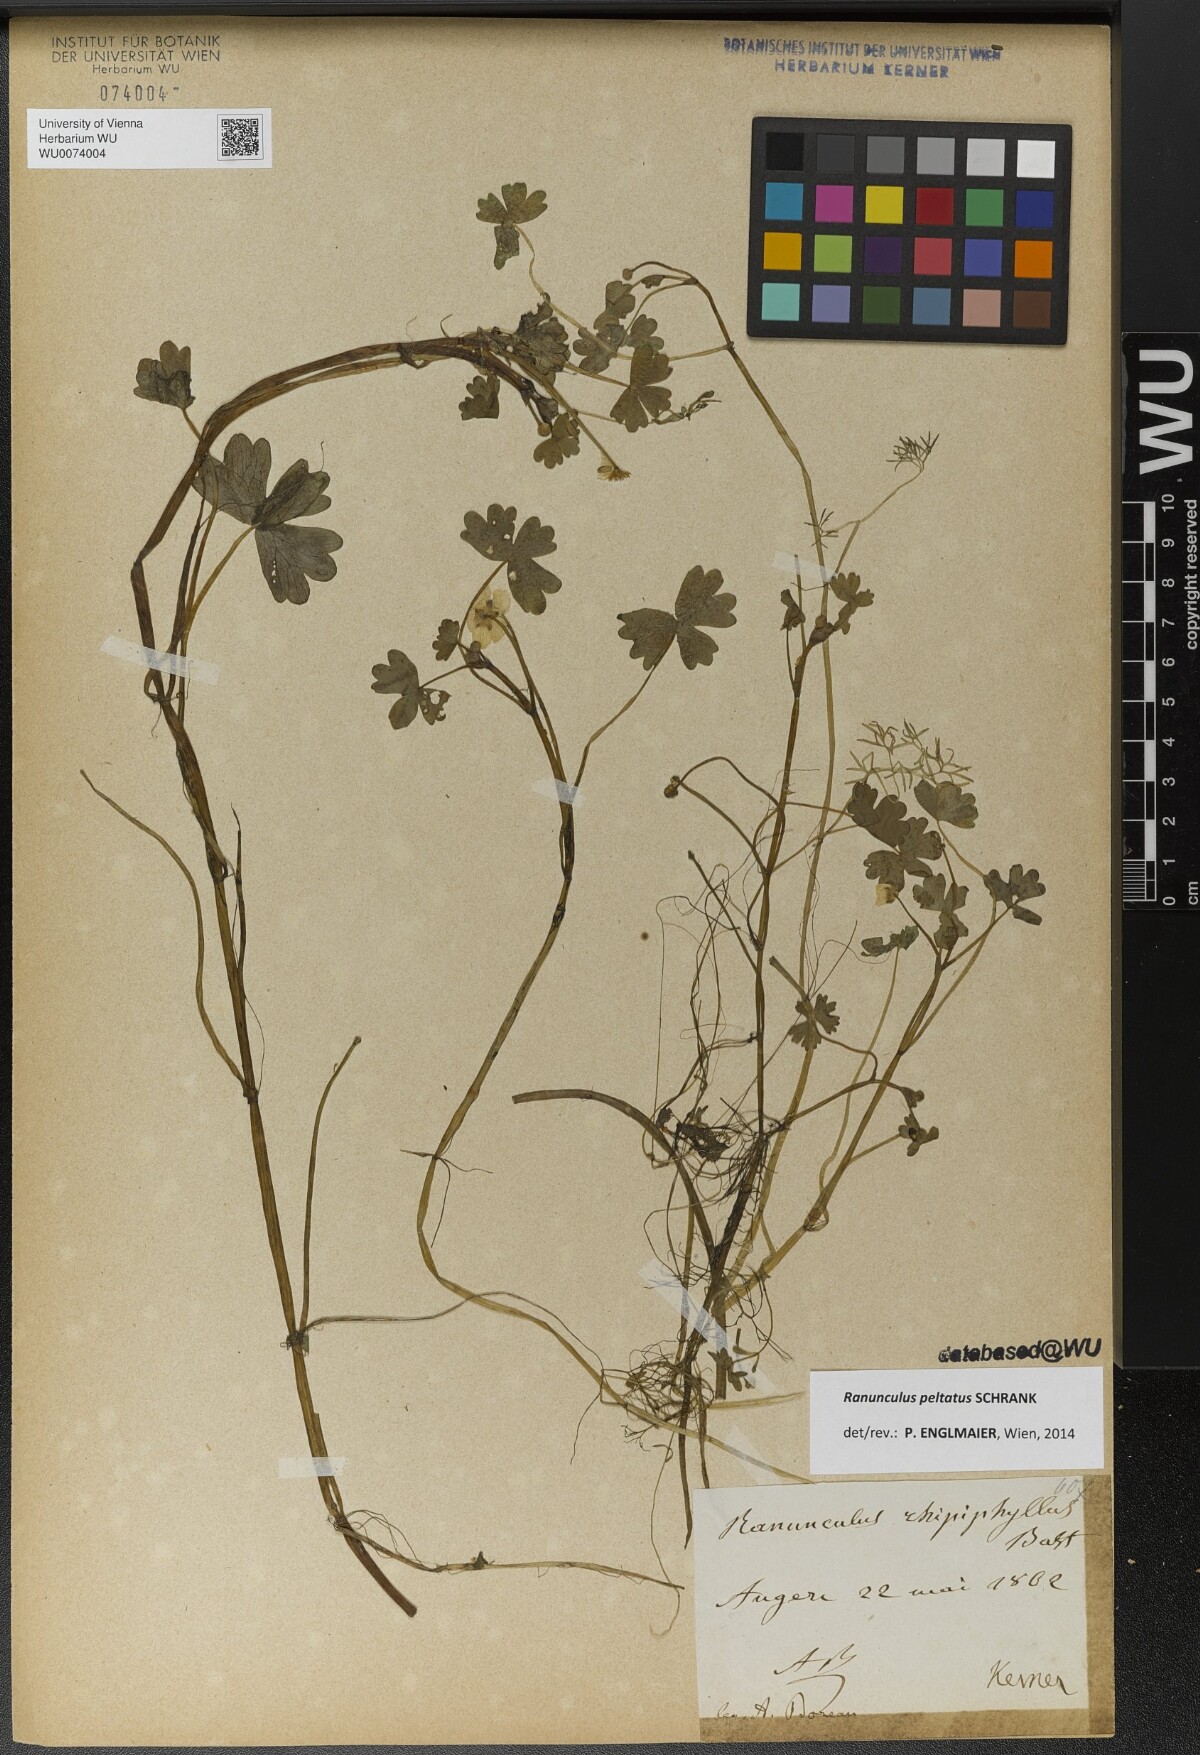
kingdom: Plantae
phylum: Tracheophyta
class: Magnoliopsida
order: Ranunculales
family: Ranunculaceae
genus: Ranunculus
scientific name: Ranunculus peltatus
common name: Pond water-crowfoot
